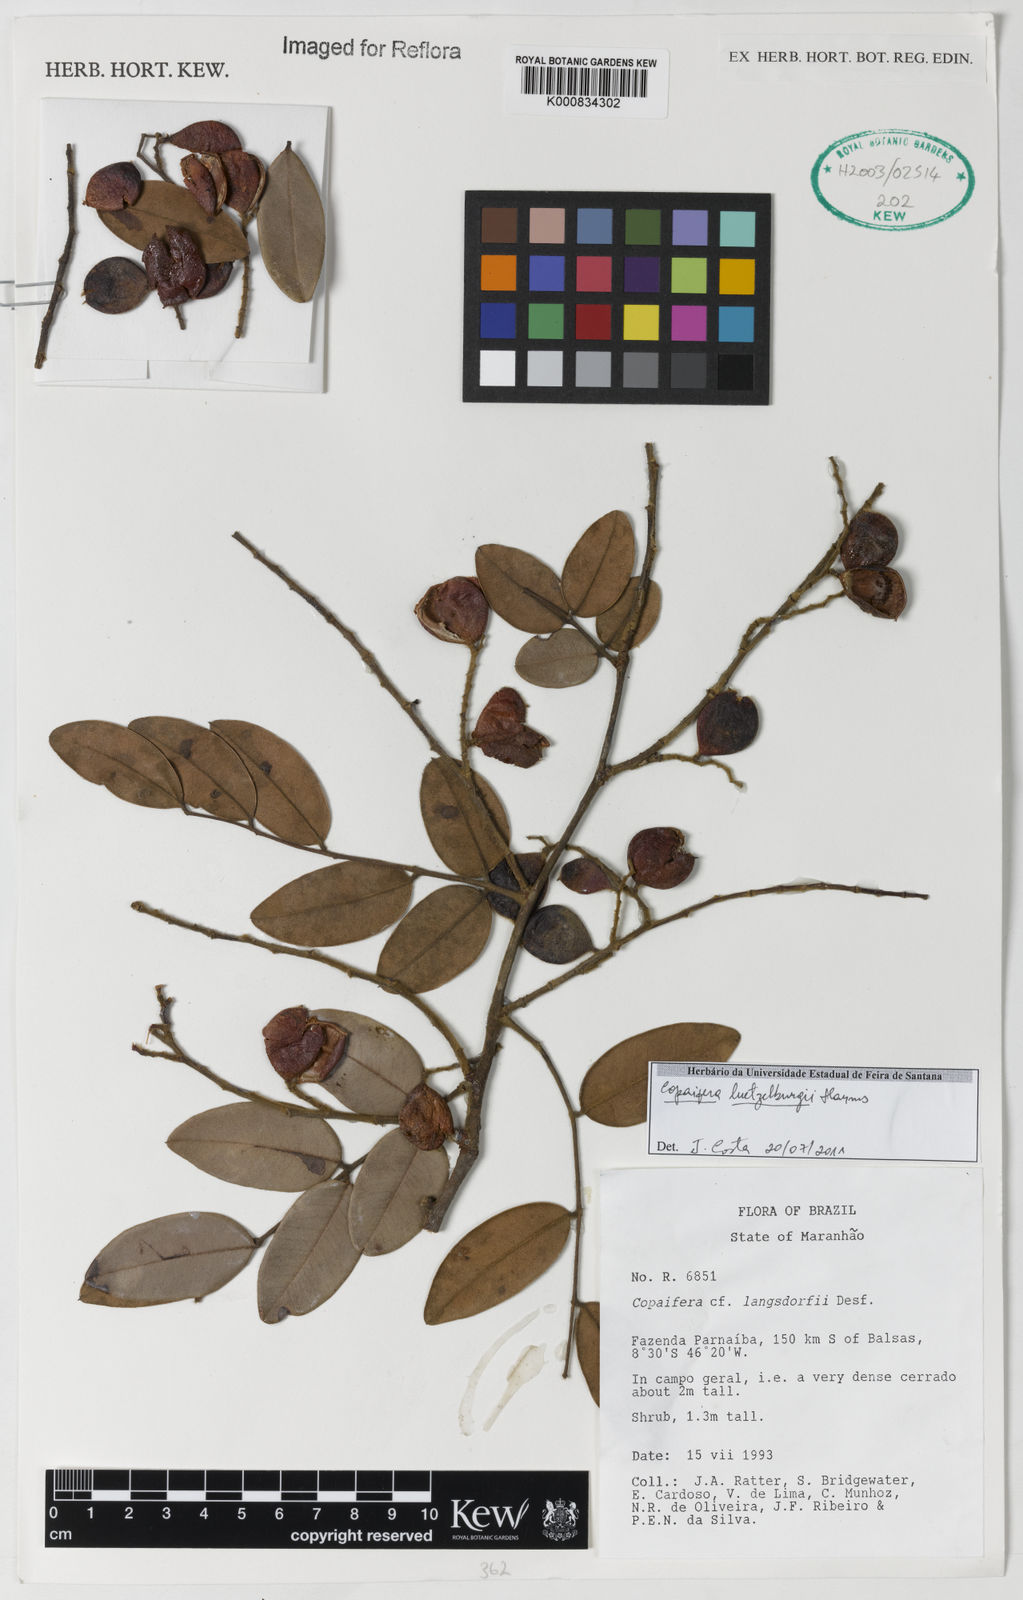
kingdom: Plantae
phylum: Tracheophyta
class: Magnoliopsida
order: Fabales
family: Fabaceae
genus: Copaifera
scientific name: Copaifera luetzelburgii
